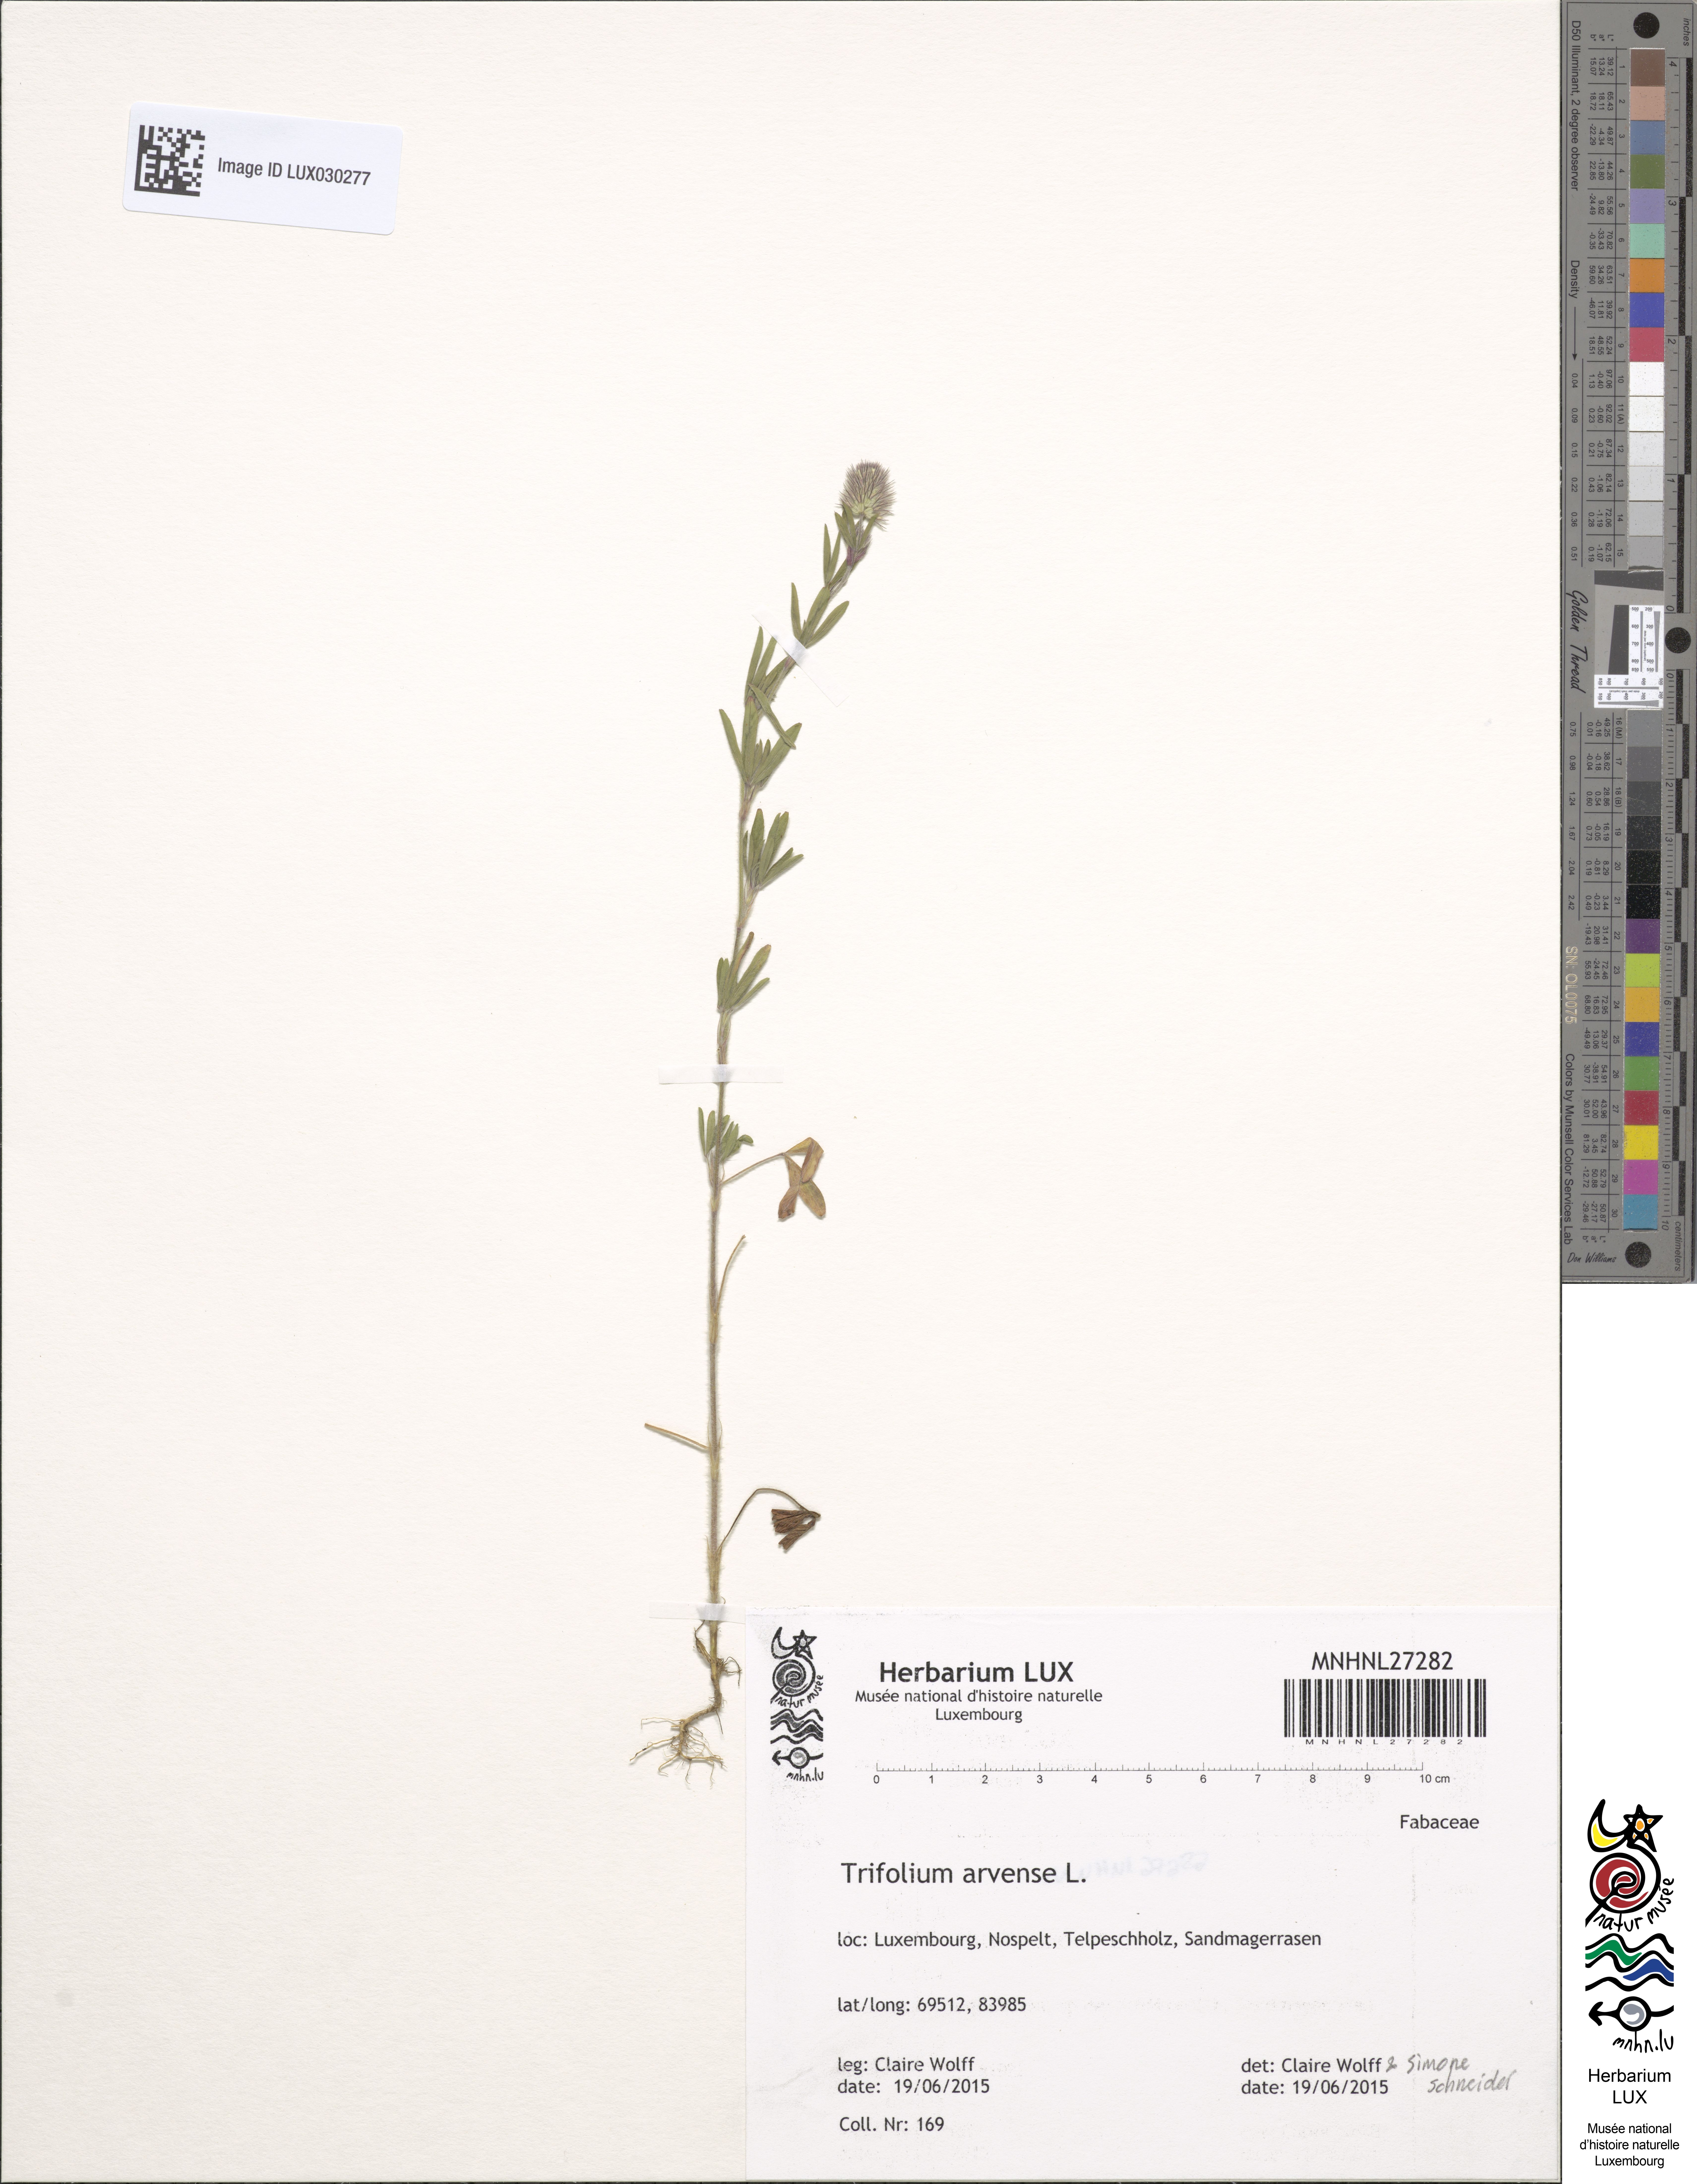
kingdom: Plantae
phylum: Tracheophyta
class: Magnoliopsida
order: Fabales
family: Fabaceae
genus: Trifolium
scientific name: Trifolium arvense
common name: Hare's-foot clover
